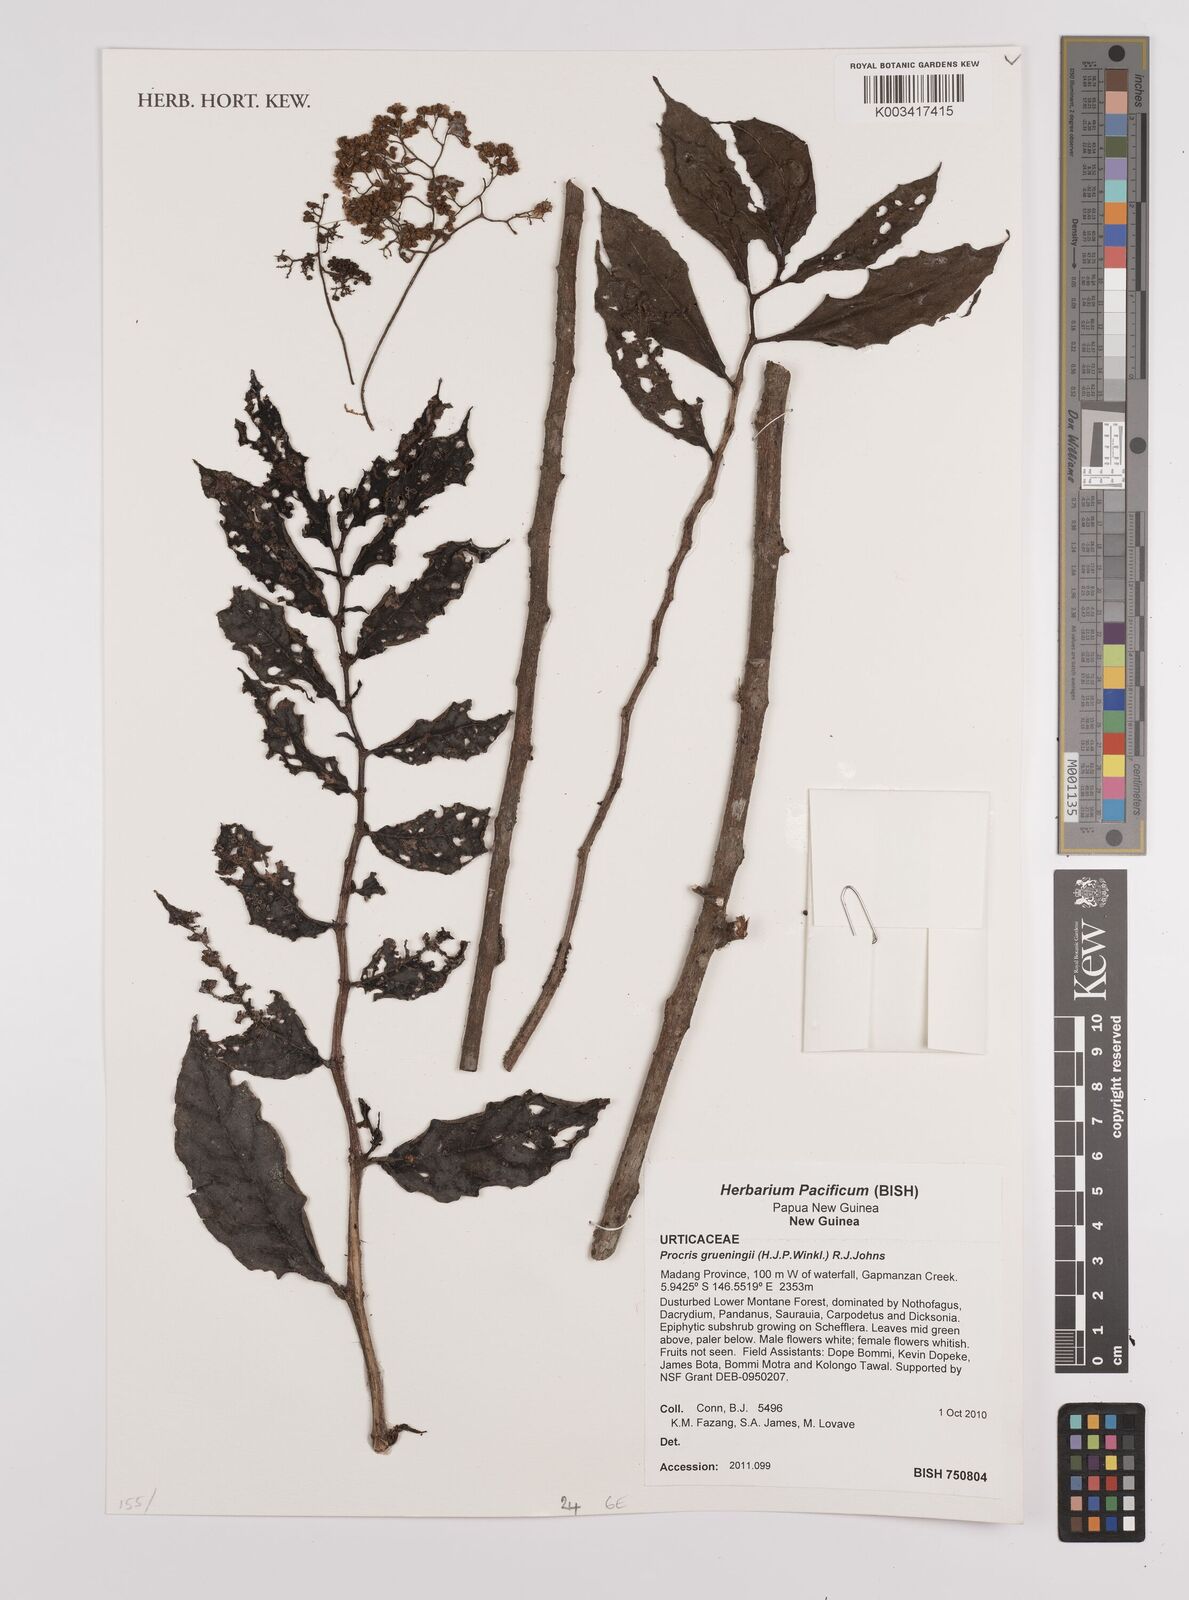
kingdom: Plantae
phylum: Tracheophyta
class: Magnoliopsida
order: Rosales
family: Urticaceae
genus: Procris
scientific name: Procris grueningii
